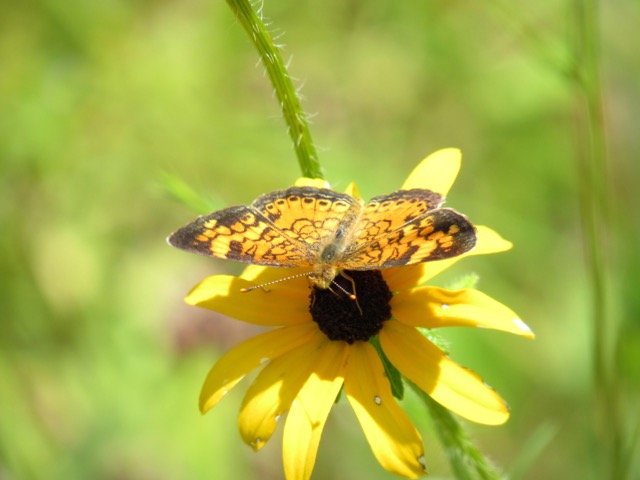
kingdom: Animalia
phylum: Arthropoda
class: Insecta
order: Lepidoptera
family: Nymphalidae
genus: Phyciodes
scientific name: Phyciodes tharos
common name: Pearl Crescent
